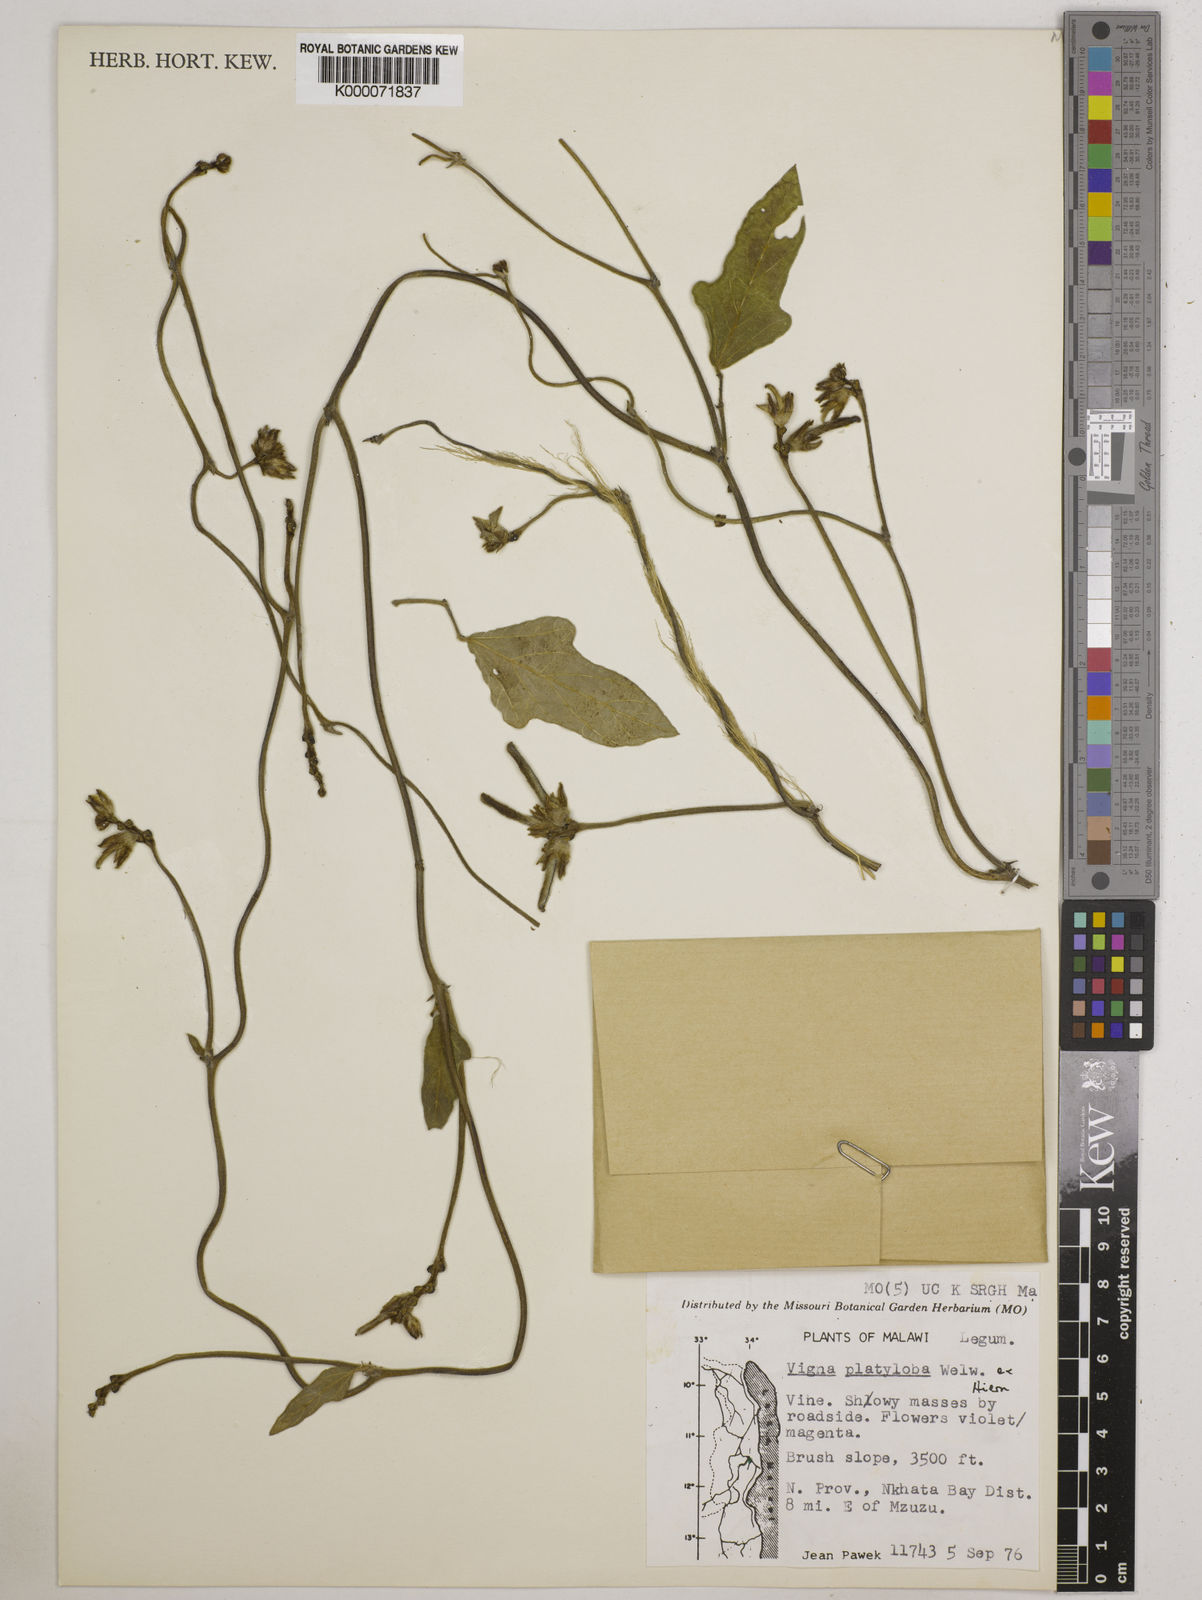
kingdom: Plantae
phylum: Tracheophyta
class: Magnoliopsida
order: Fabales
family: Fabaceae
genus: Vigna
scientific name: Vigna platyloba
